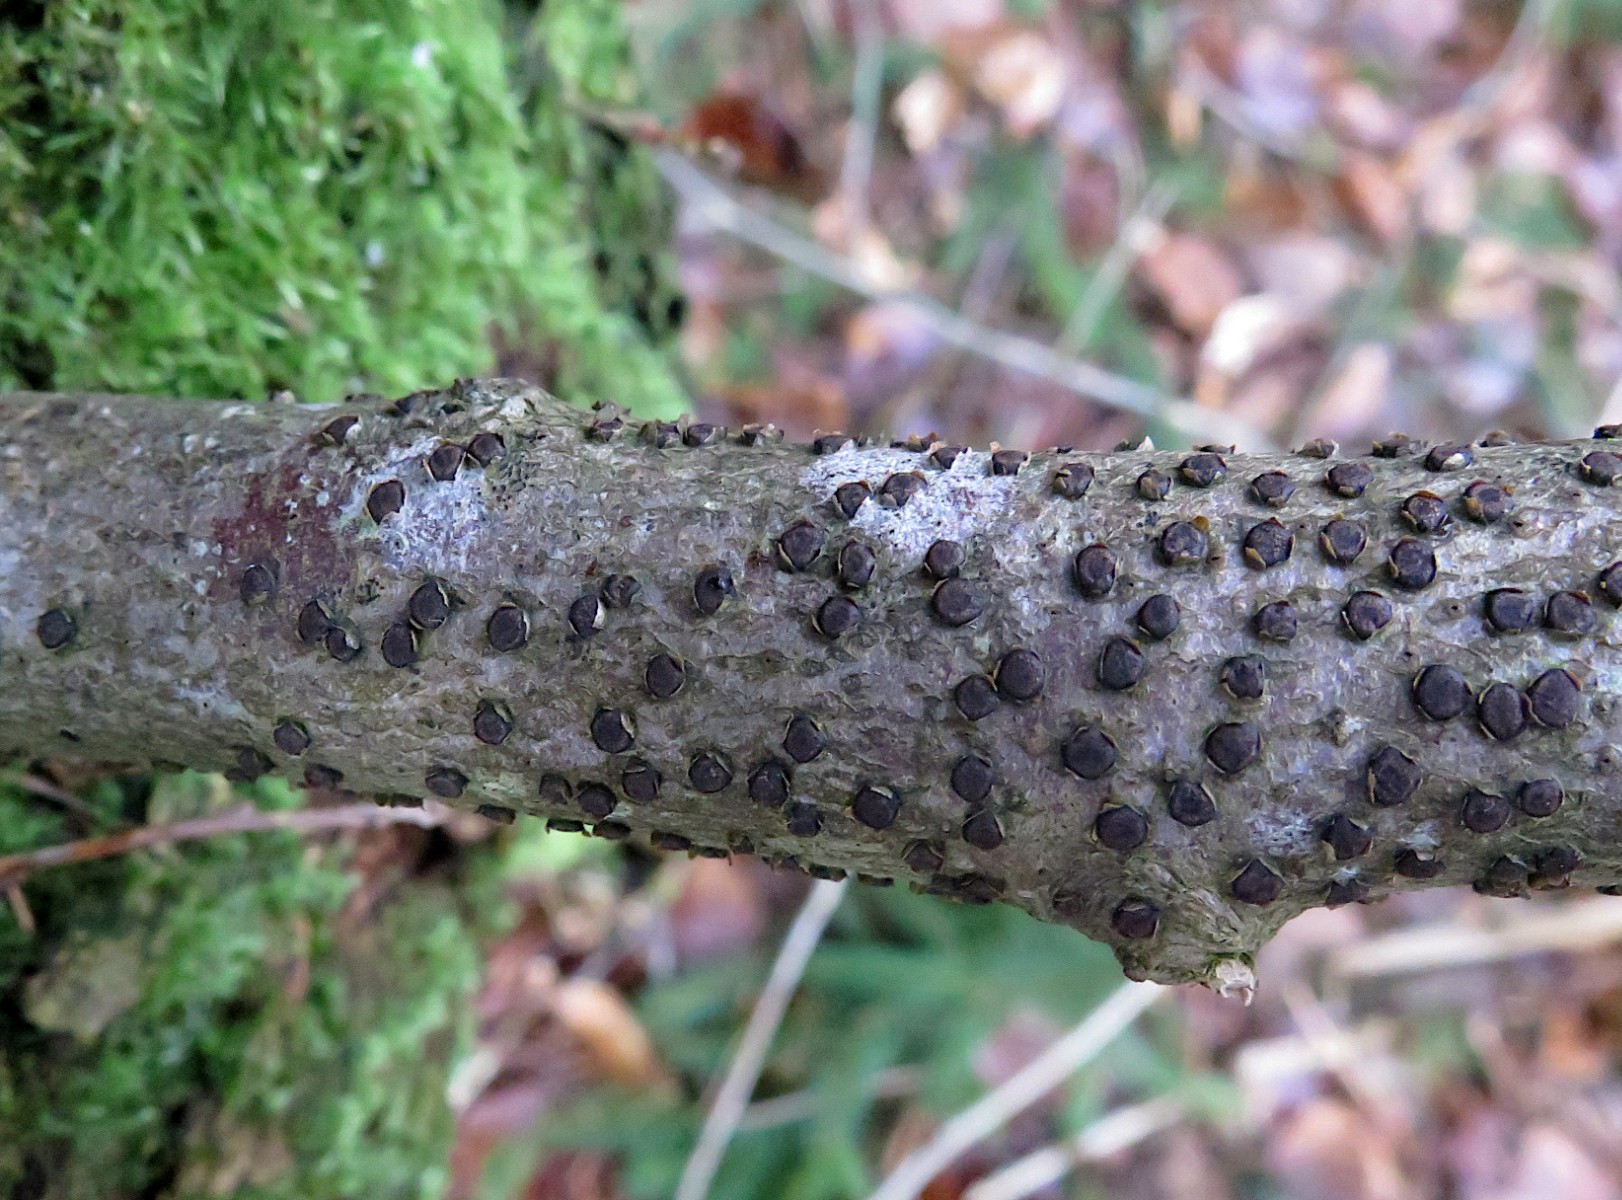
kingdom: Fungi
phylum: Ascomycota
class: Sordariomycetes
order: Xylariales
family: Diatrypaceae
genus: Diatrype
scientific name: Diatrype disciformis
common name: kant-kulskorpe
